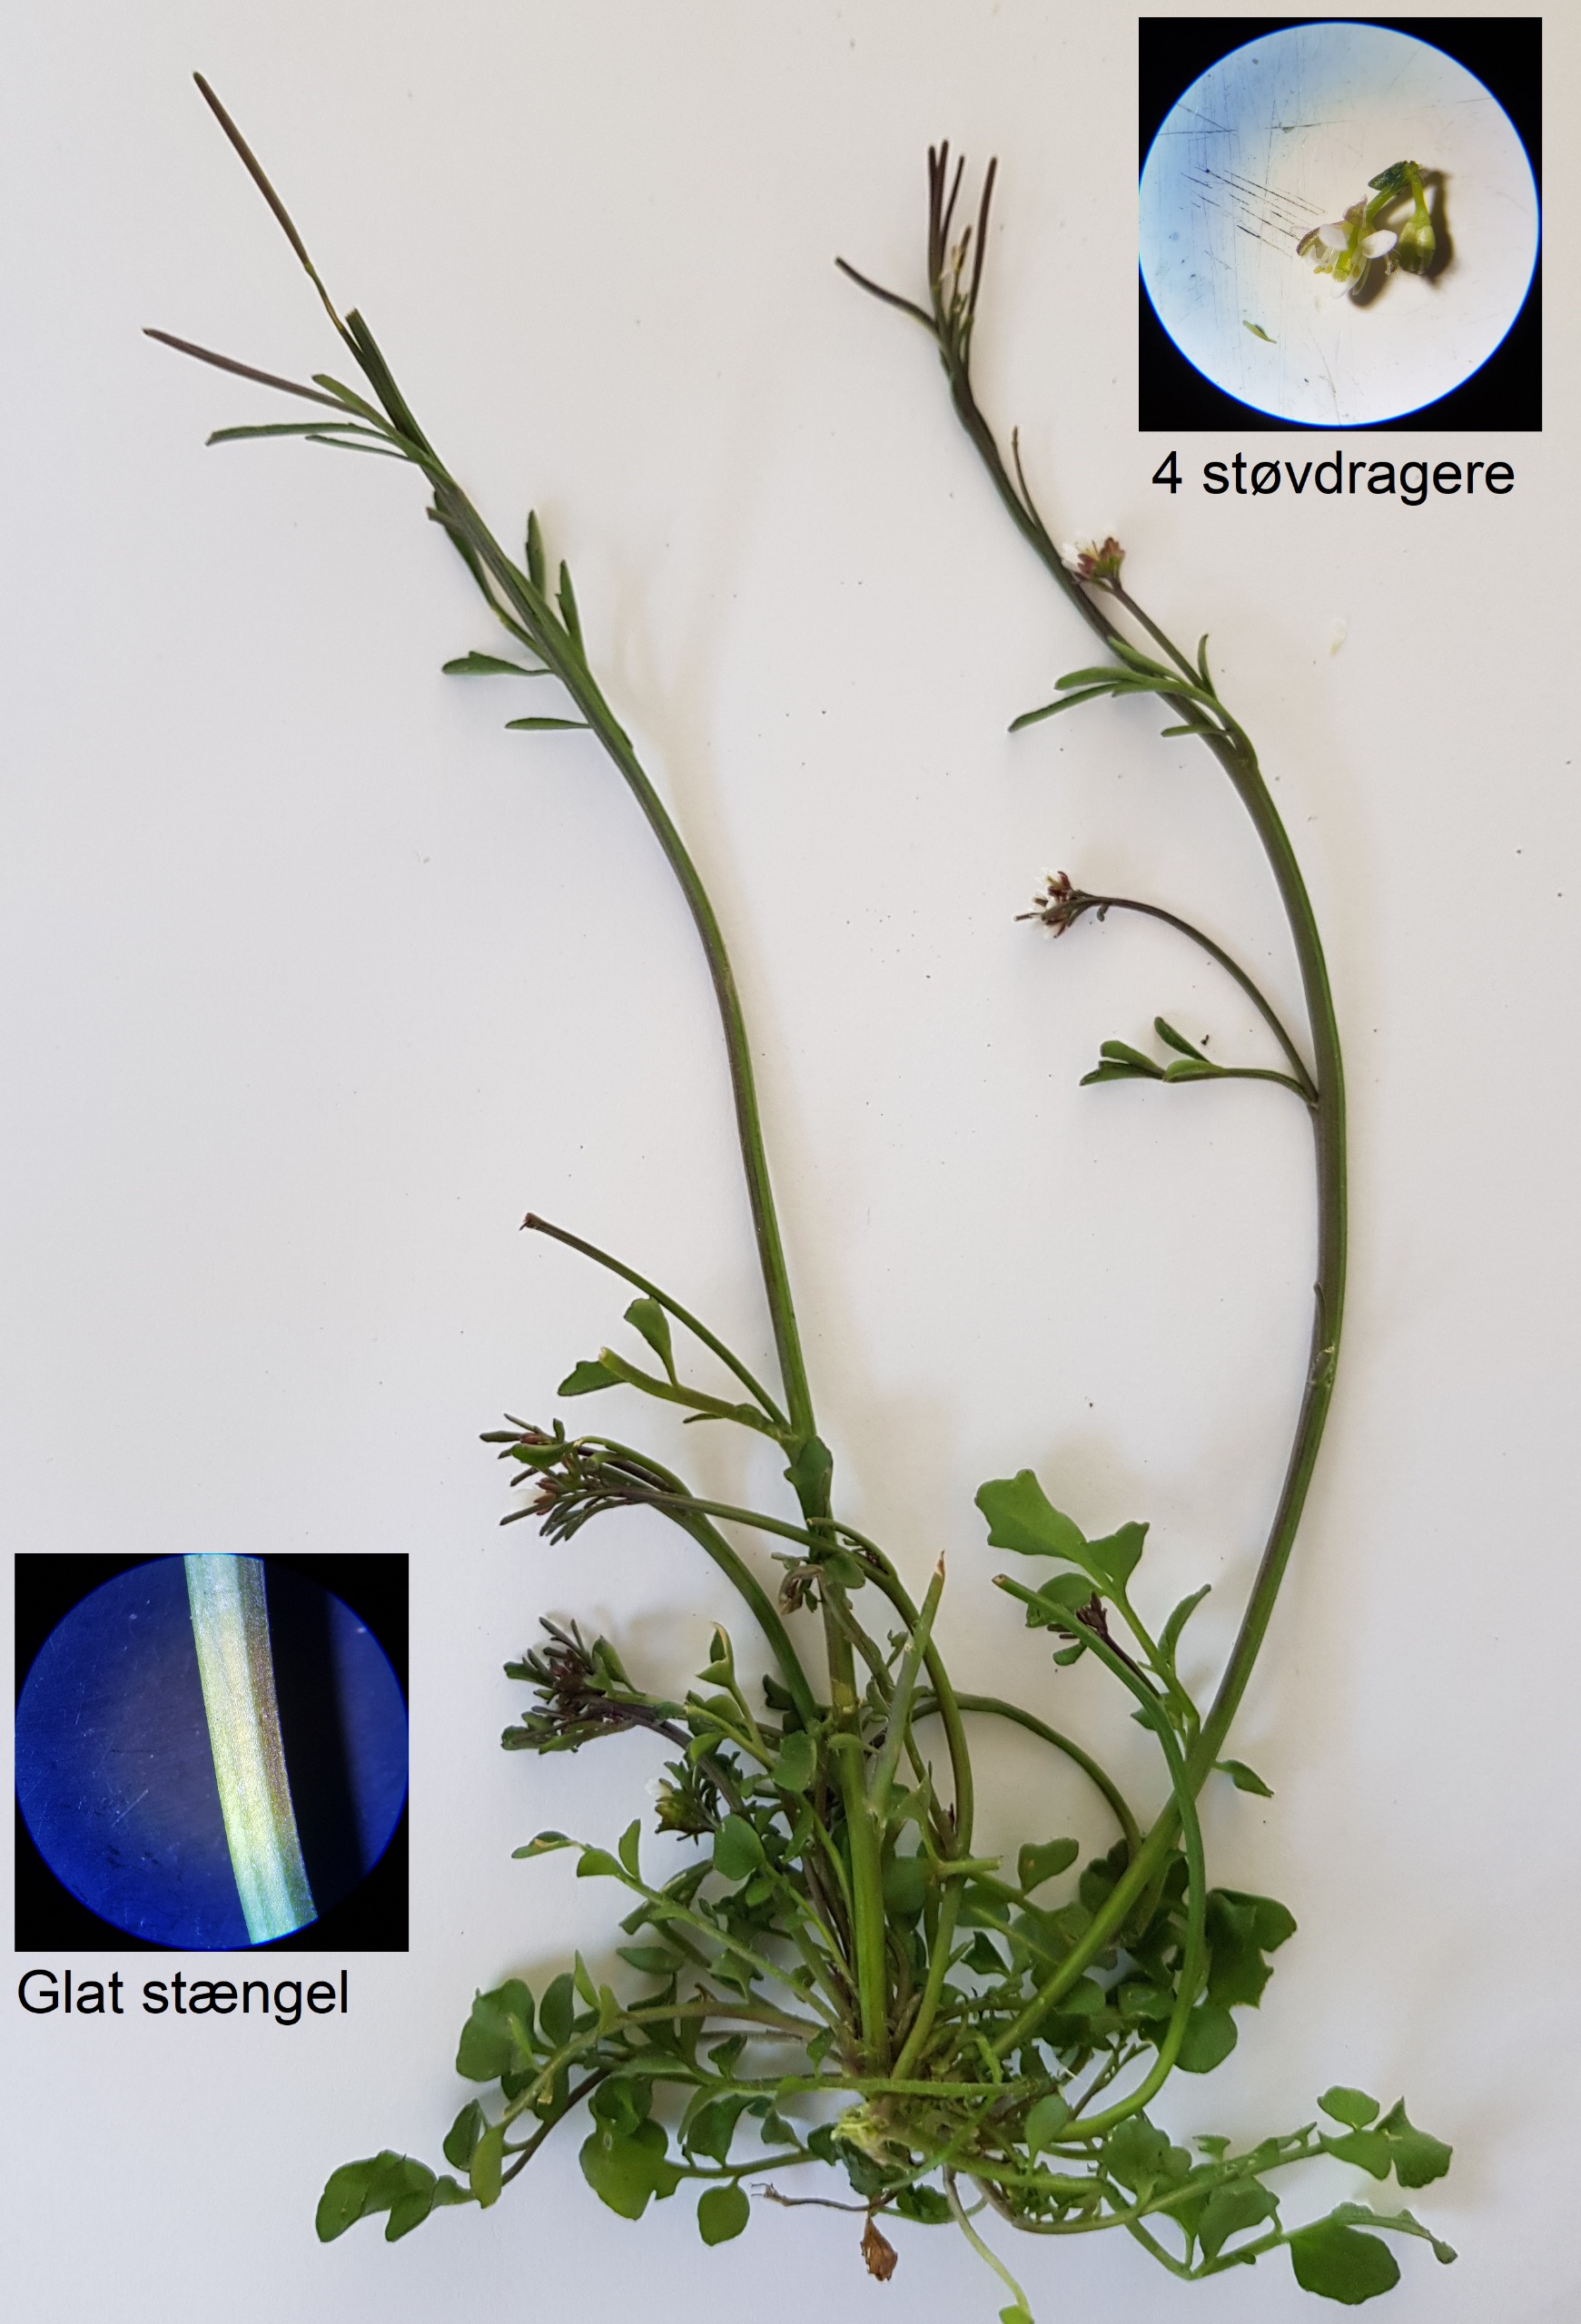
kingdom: Plantae
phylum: Tracheophyta
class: Magnoliopsida
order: Brassicales
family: Brassicaceae
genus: Cardamine
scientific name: Cardamine hirsuta
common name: Roset-springklap
